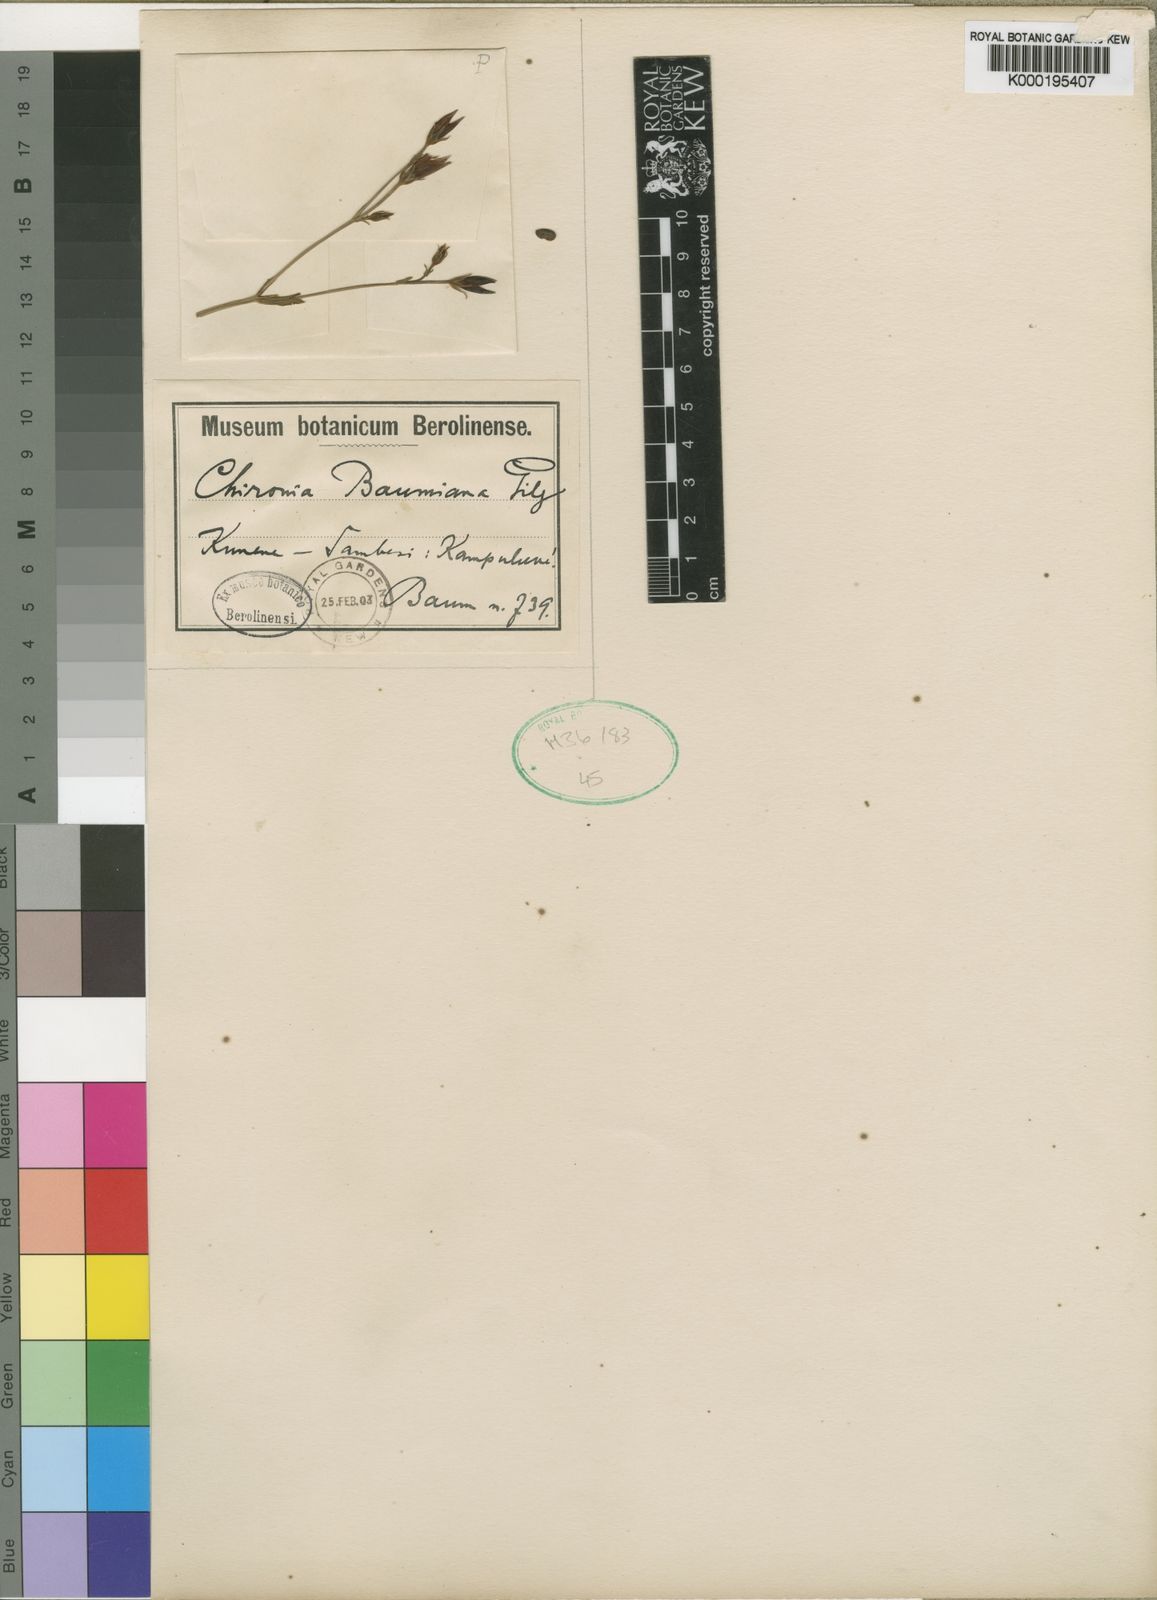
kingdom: Plantae
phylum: Tracheophyta
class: Magnoliopsida
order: Gentianales
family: Gentianaceae
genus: Chironia
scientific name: Chironia baumiana
